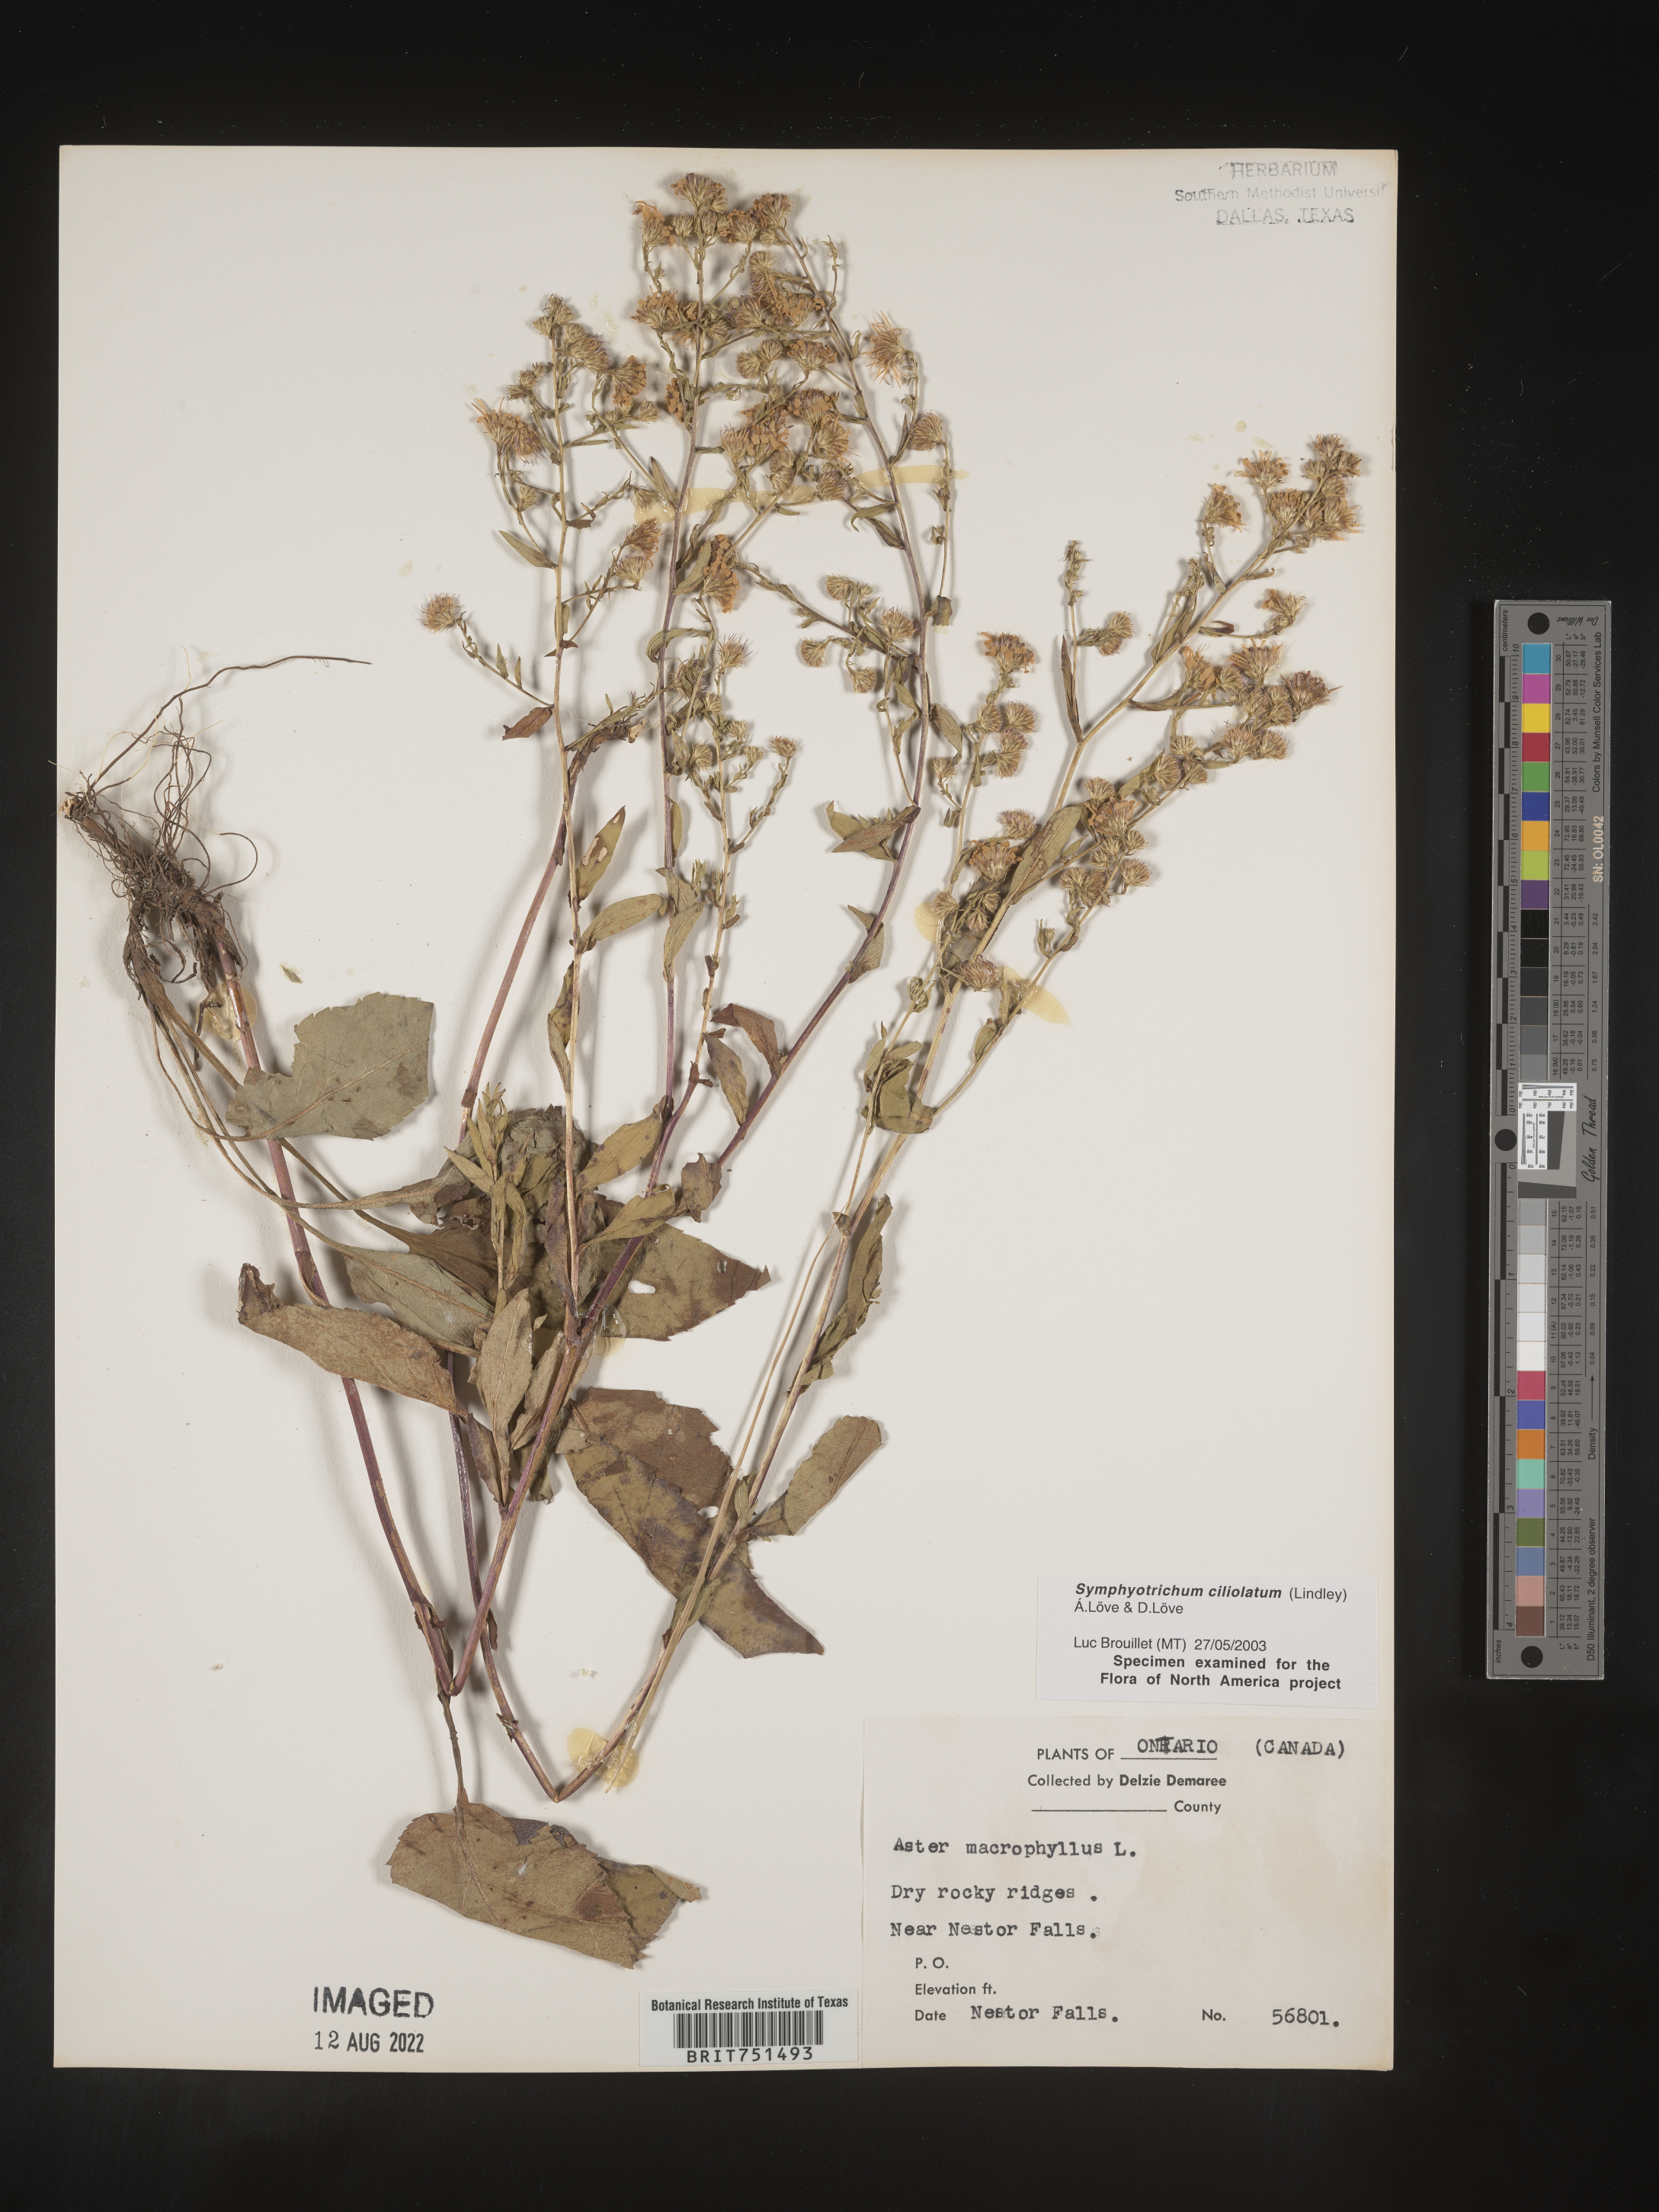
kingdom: Plantae
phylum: Tracheophyta
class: Magnoliopsida
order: Asterales
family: Asteraceae
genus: Symphyotrichum
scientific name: Symphyotrichum ciliolatum
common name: Fringed blue aster
